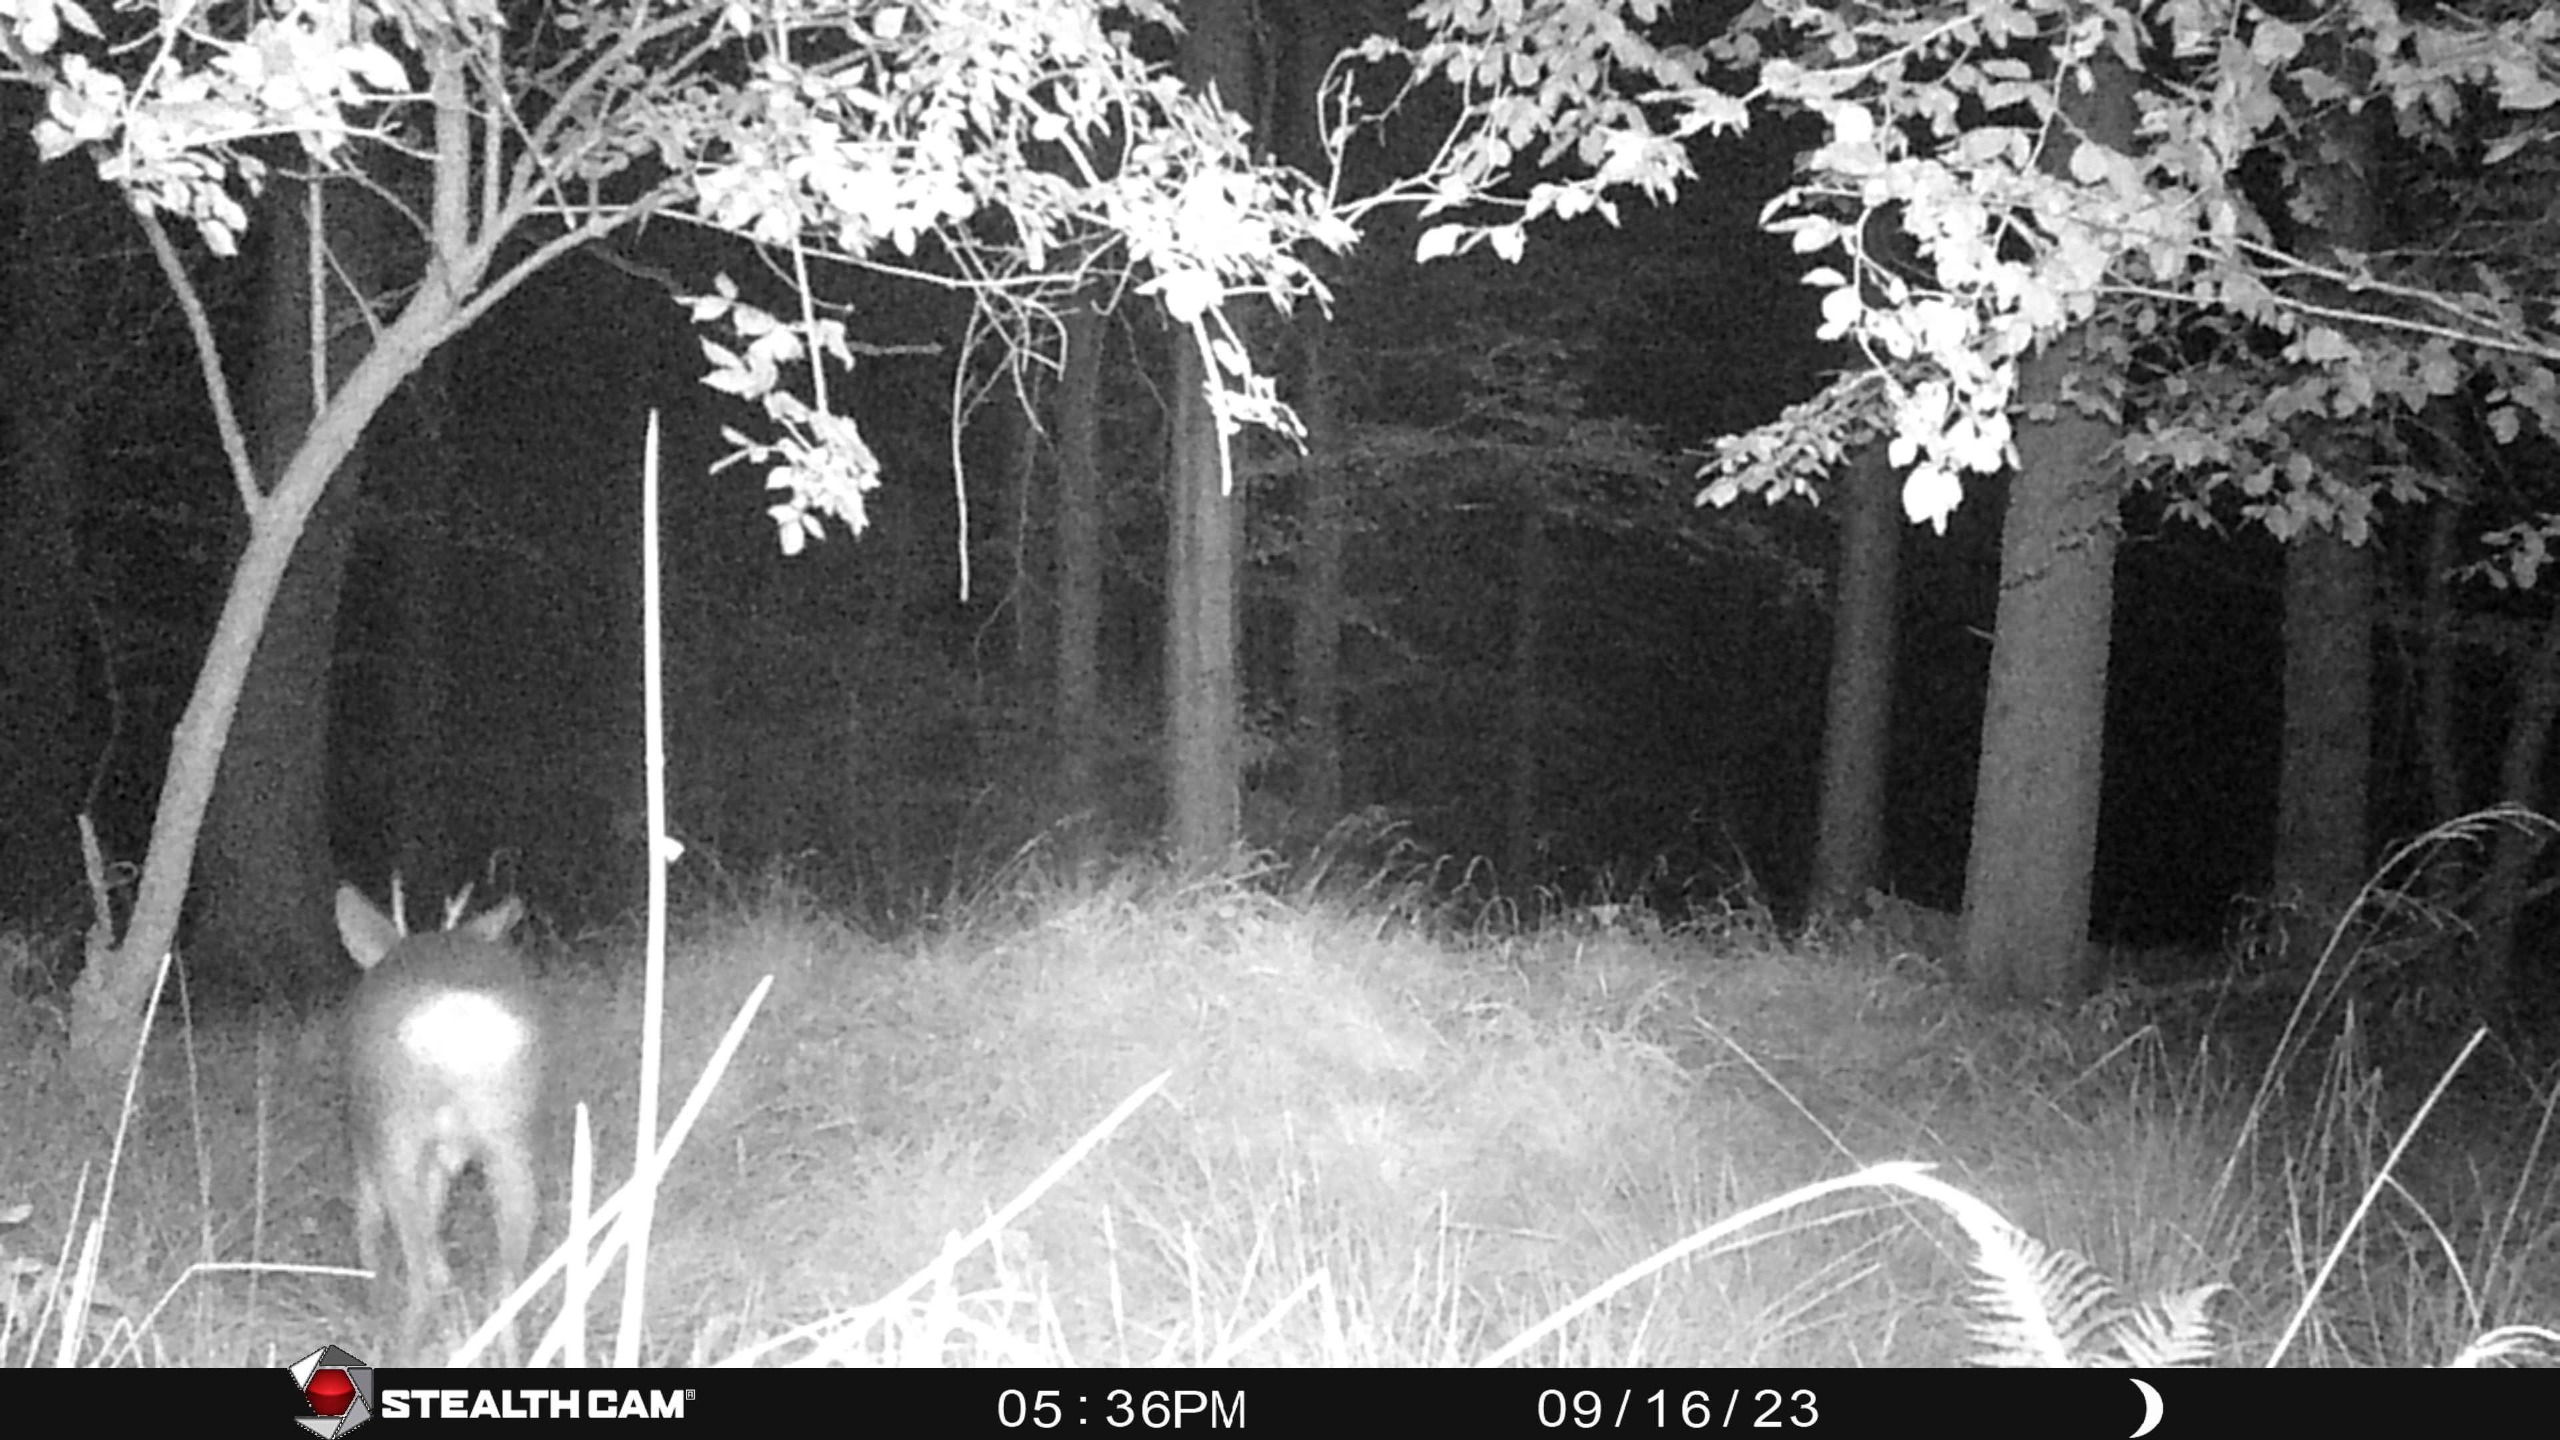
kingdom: Animalia
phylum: Chordata
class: Mammalia
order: Artiodactyla
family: Cervidae
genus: Capreolus
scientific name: Capreolus capreolus
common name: Rådyr
